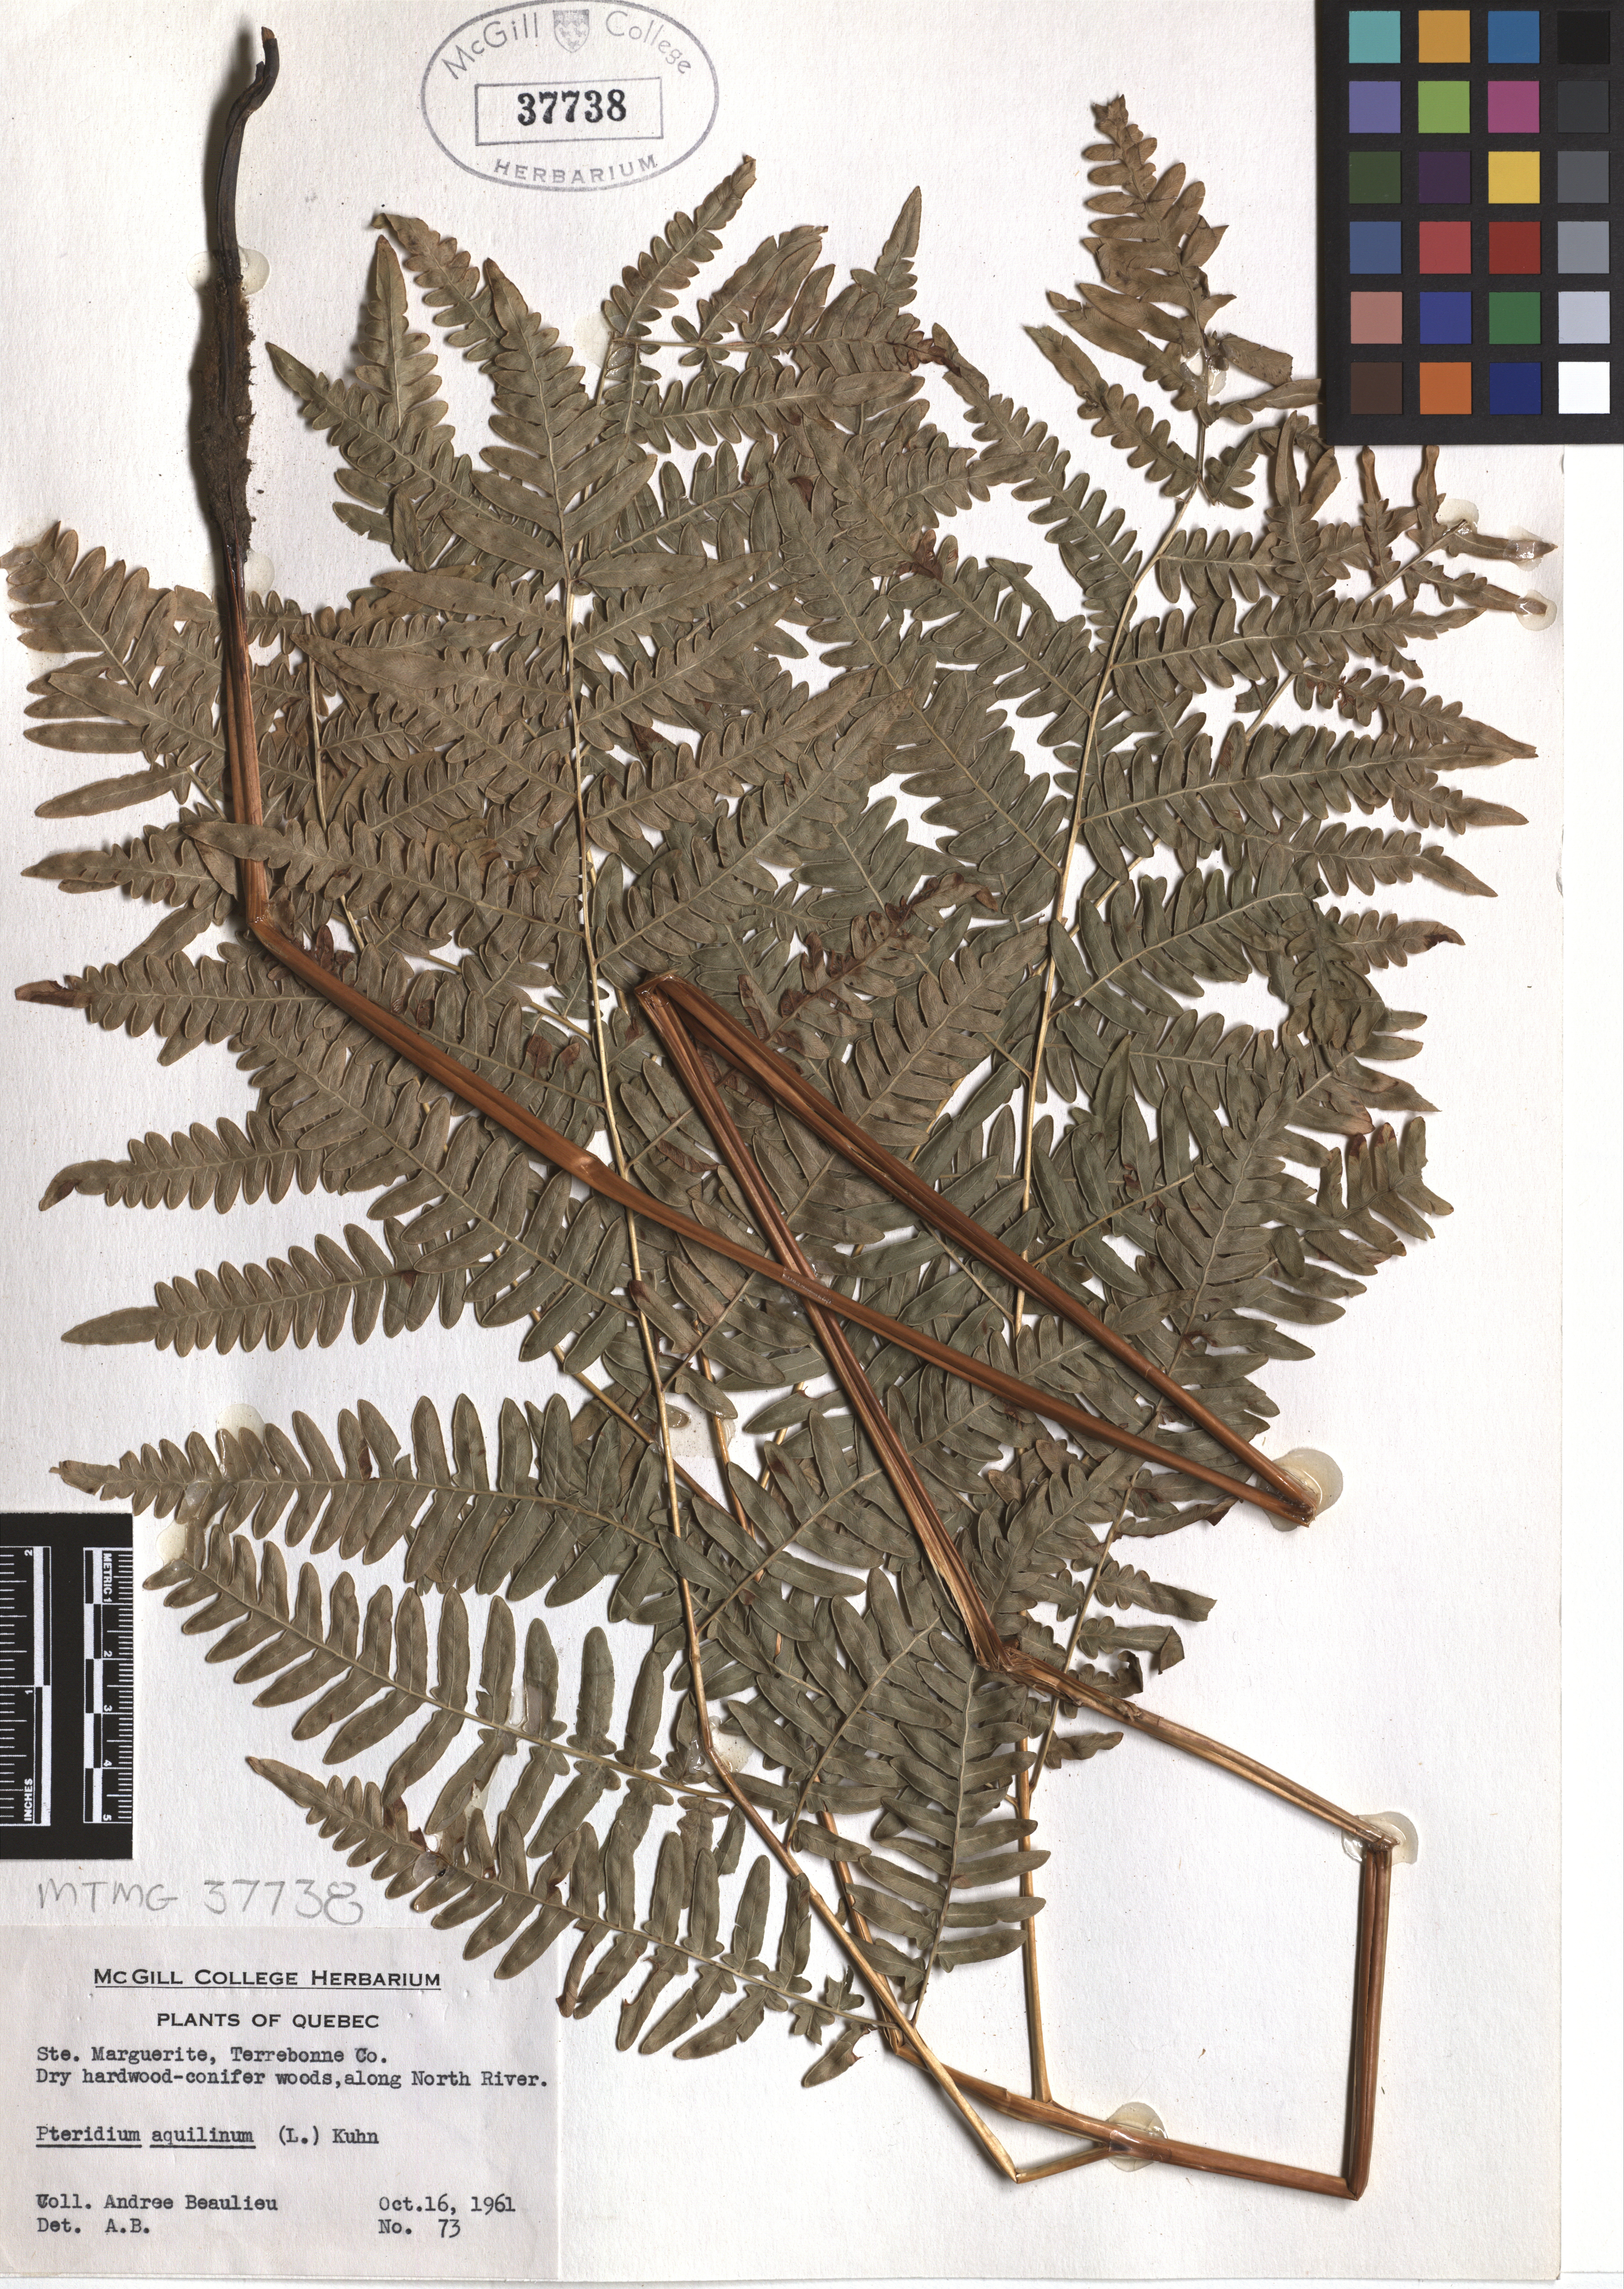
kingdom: Plantae
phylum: Tracheophyta
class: Polypodiopsida
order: Polypodiales
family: Dennstaedtiaceae
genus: Pteridium
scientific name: Pteridium aquilinum
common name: Bracken
